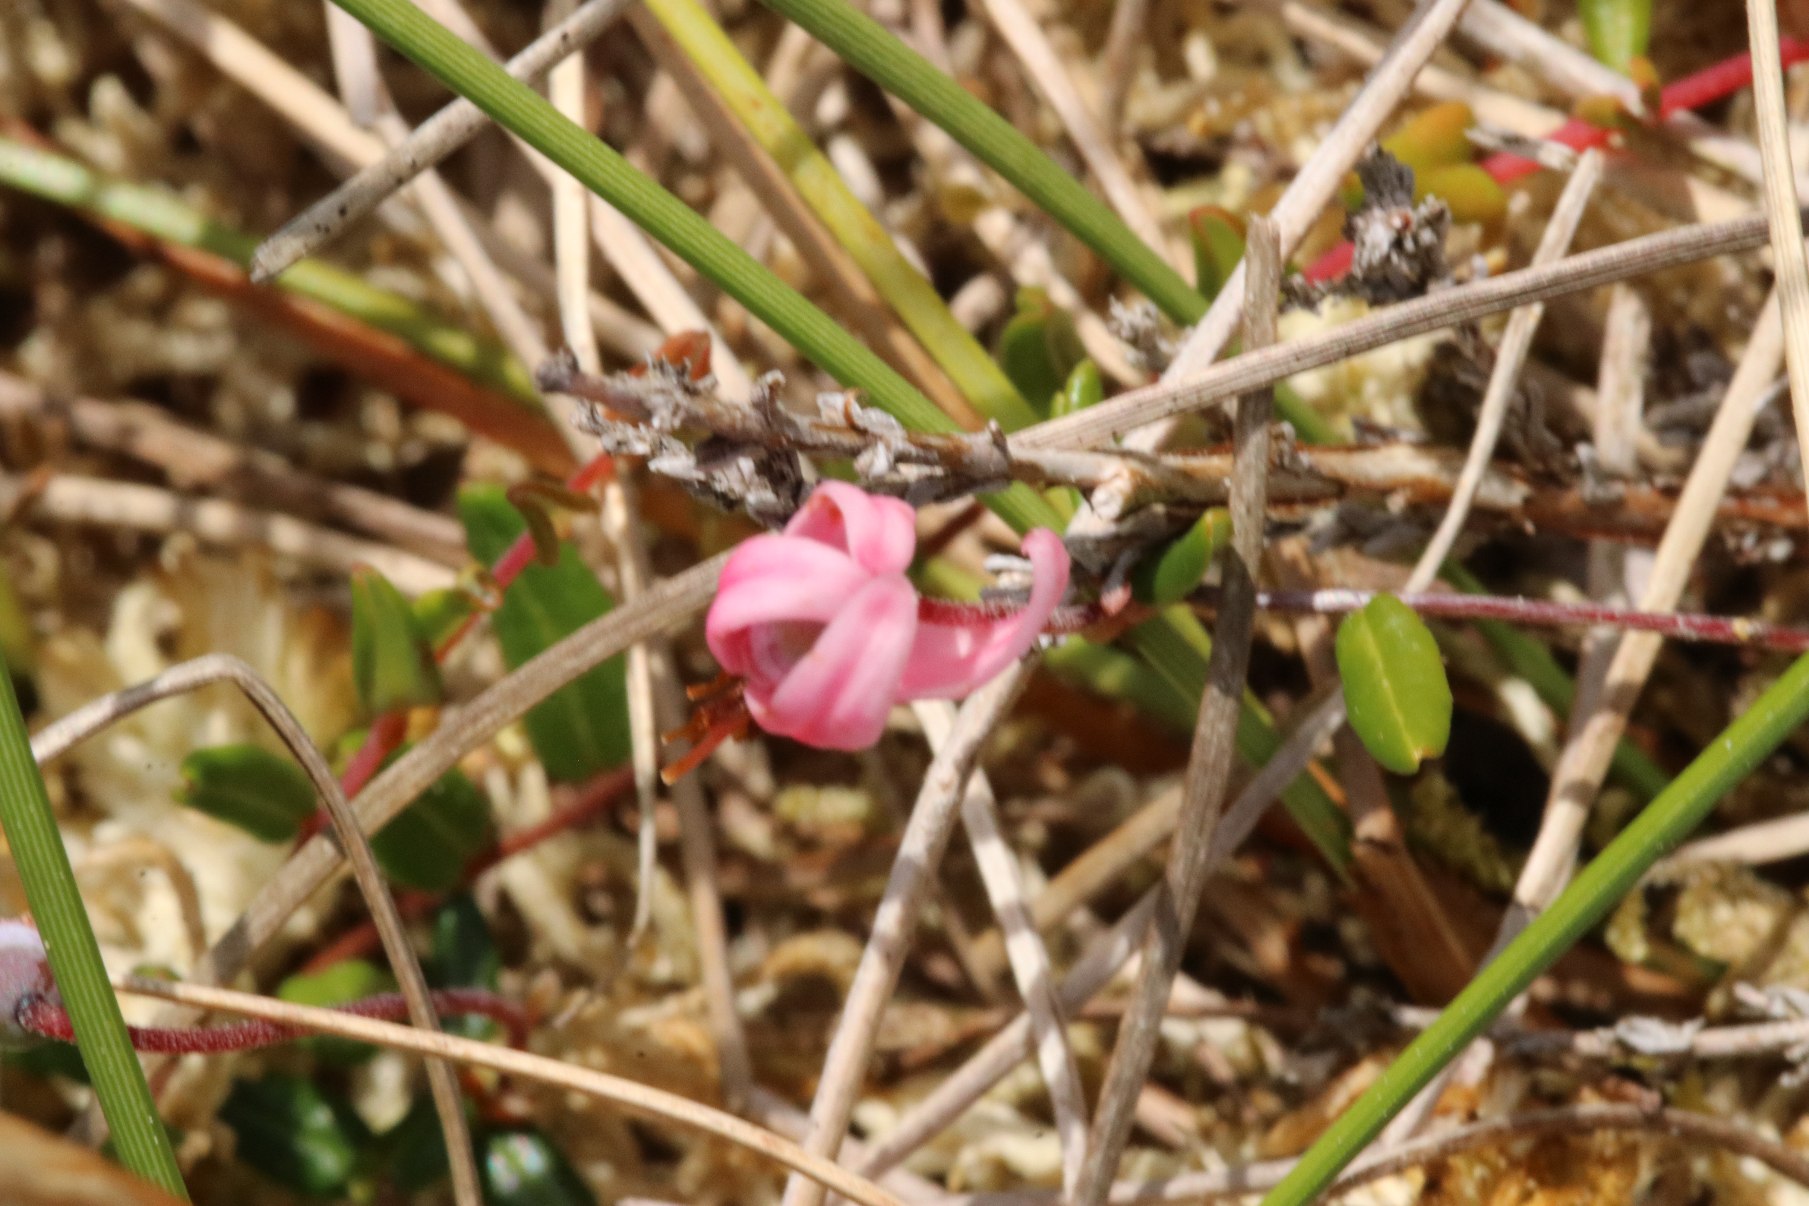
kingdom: Plantae
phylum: Tracheophyta
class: Magnoliopsida
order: Ericales
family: Ericaceae
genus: Vaccinium
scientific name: Vaccinium oxycoccos
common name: Tranebær
